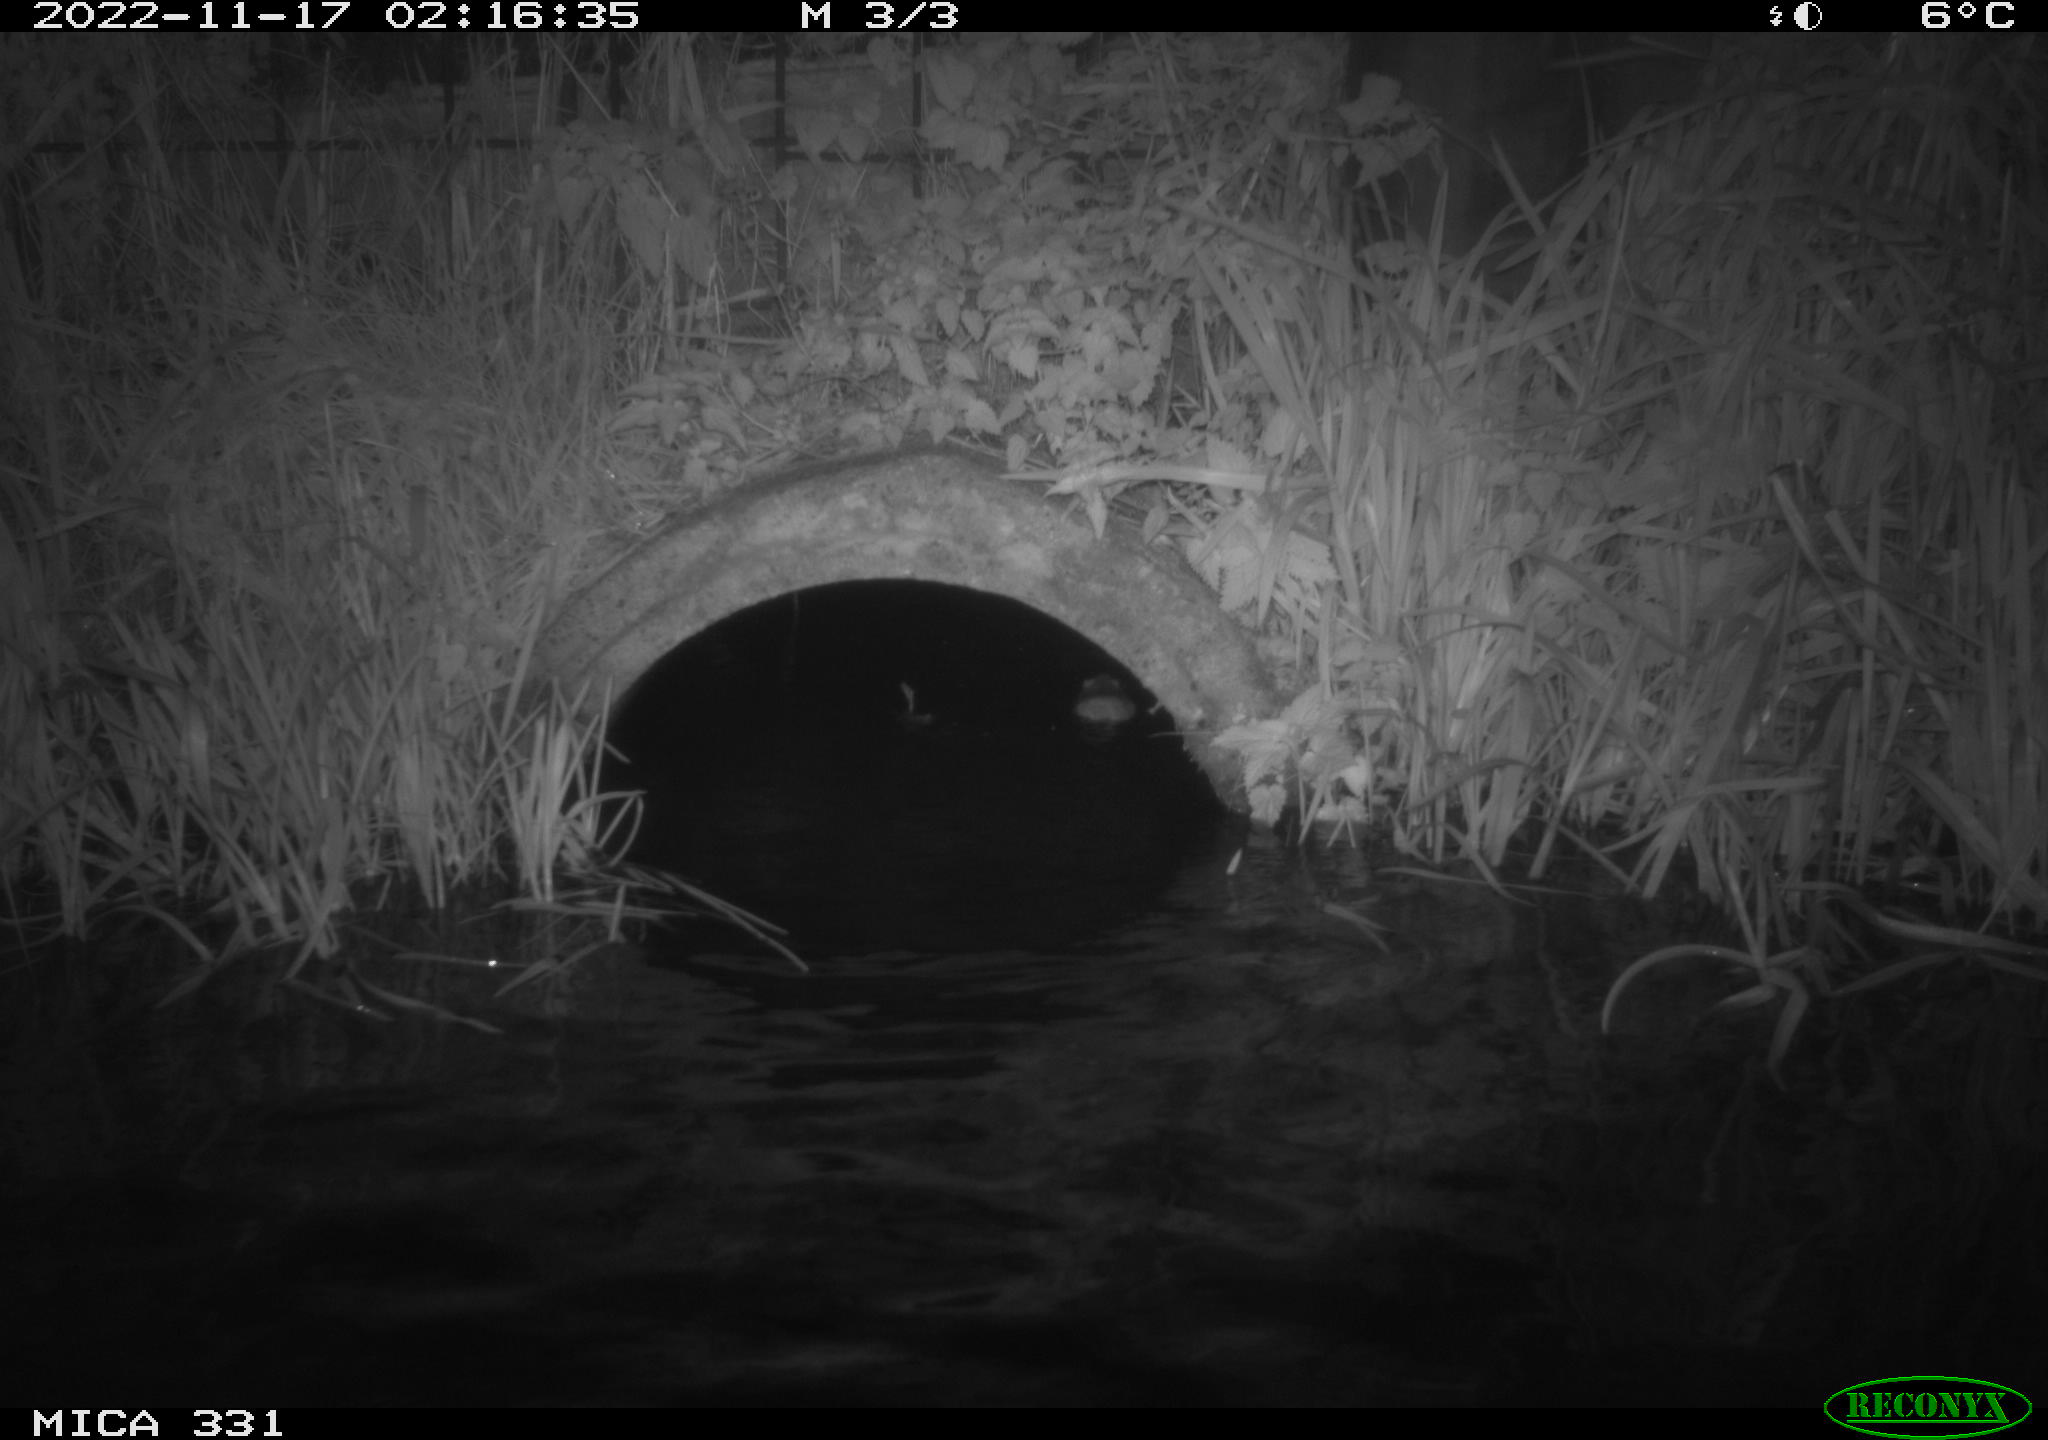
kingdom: Animalia
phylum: Chordata
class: Mammalia
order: Rodentia
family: Muridae
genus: Rattus
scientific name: Rattus norvegicus
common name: Brown rat
